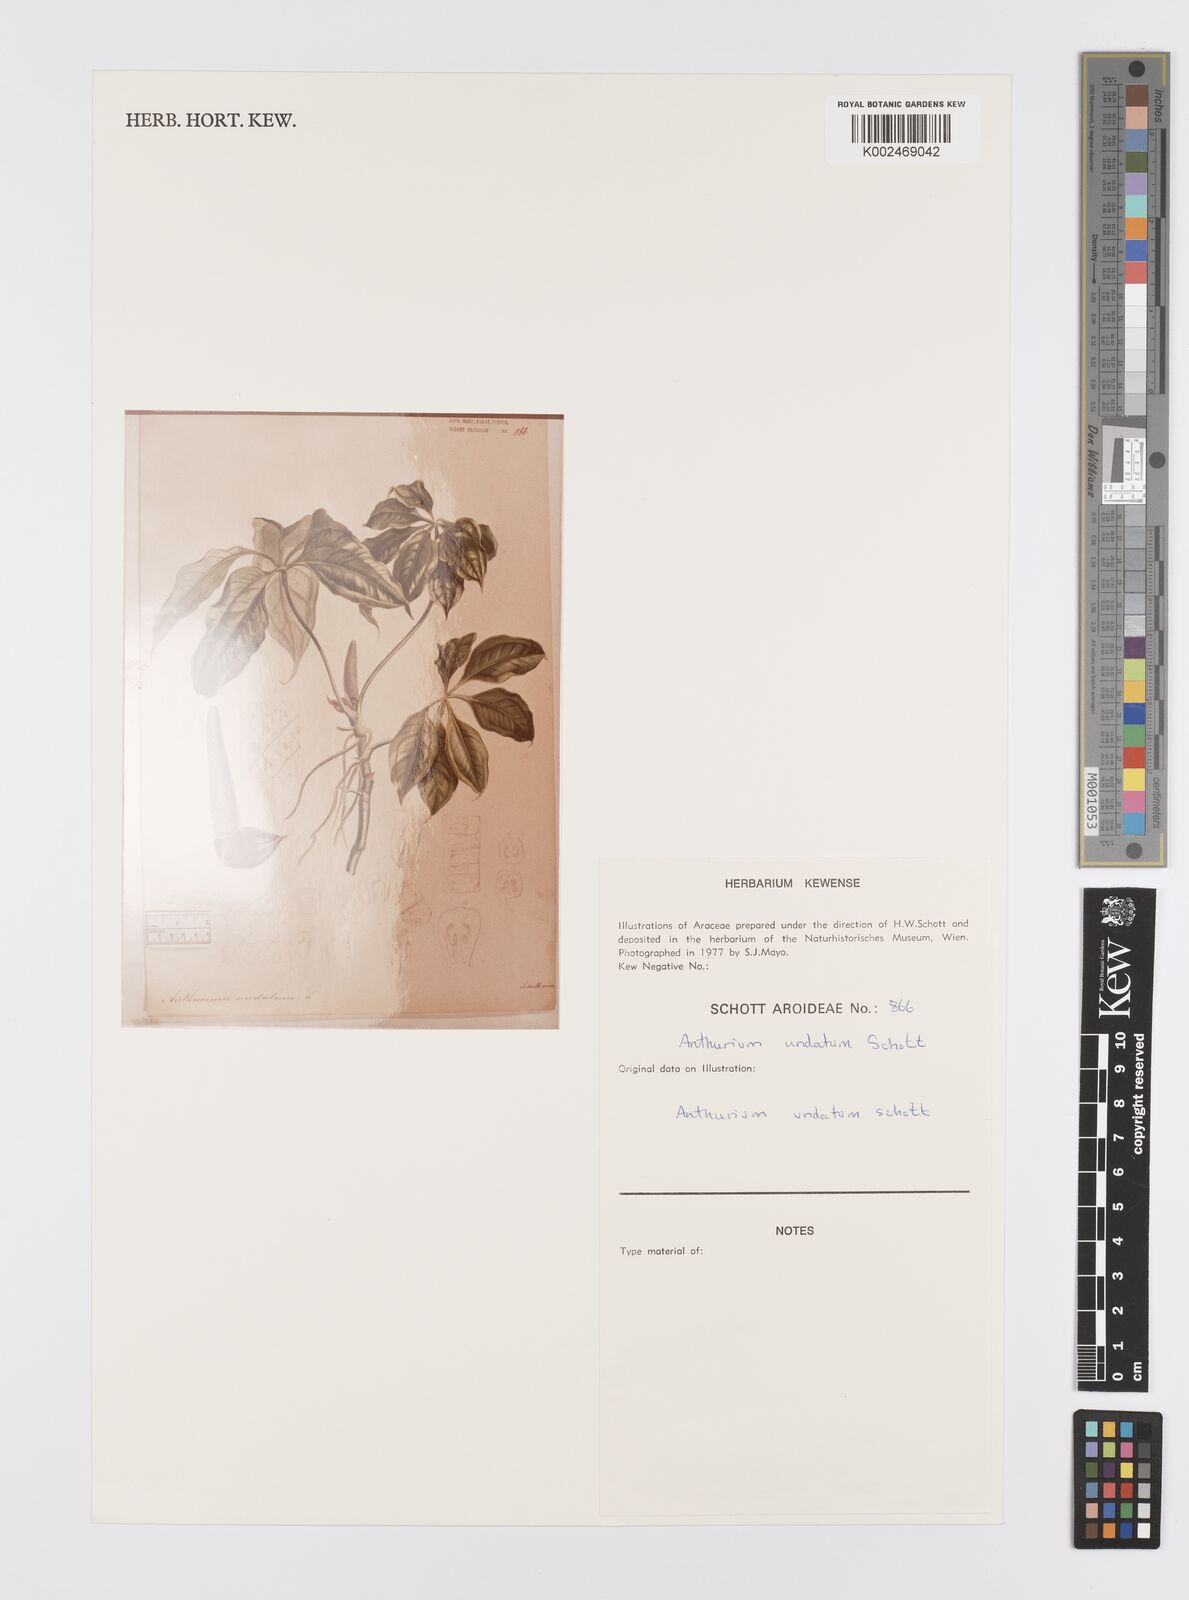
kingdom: Plantae
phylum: Tracheophyta
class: Liliopsida
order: Alismatales
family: Araceae
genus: Anthurium
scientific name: Anthurium pentaphyllum
